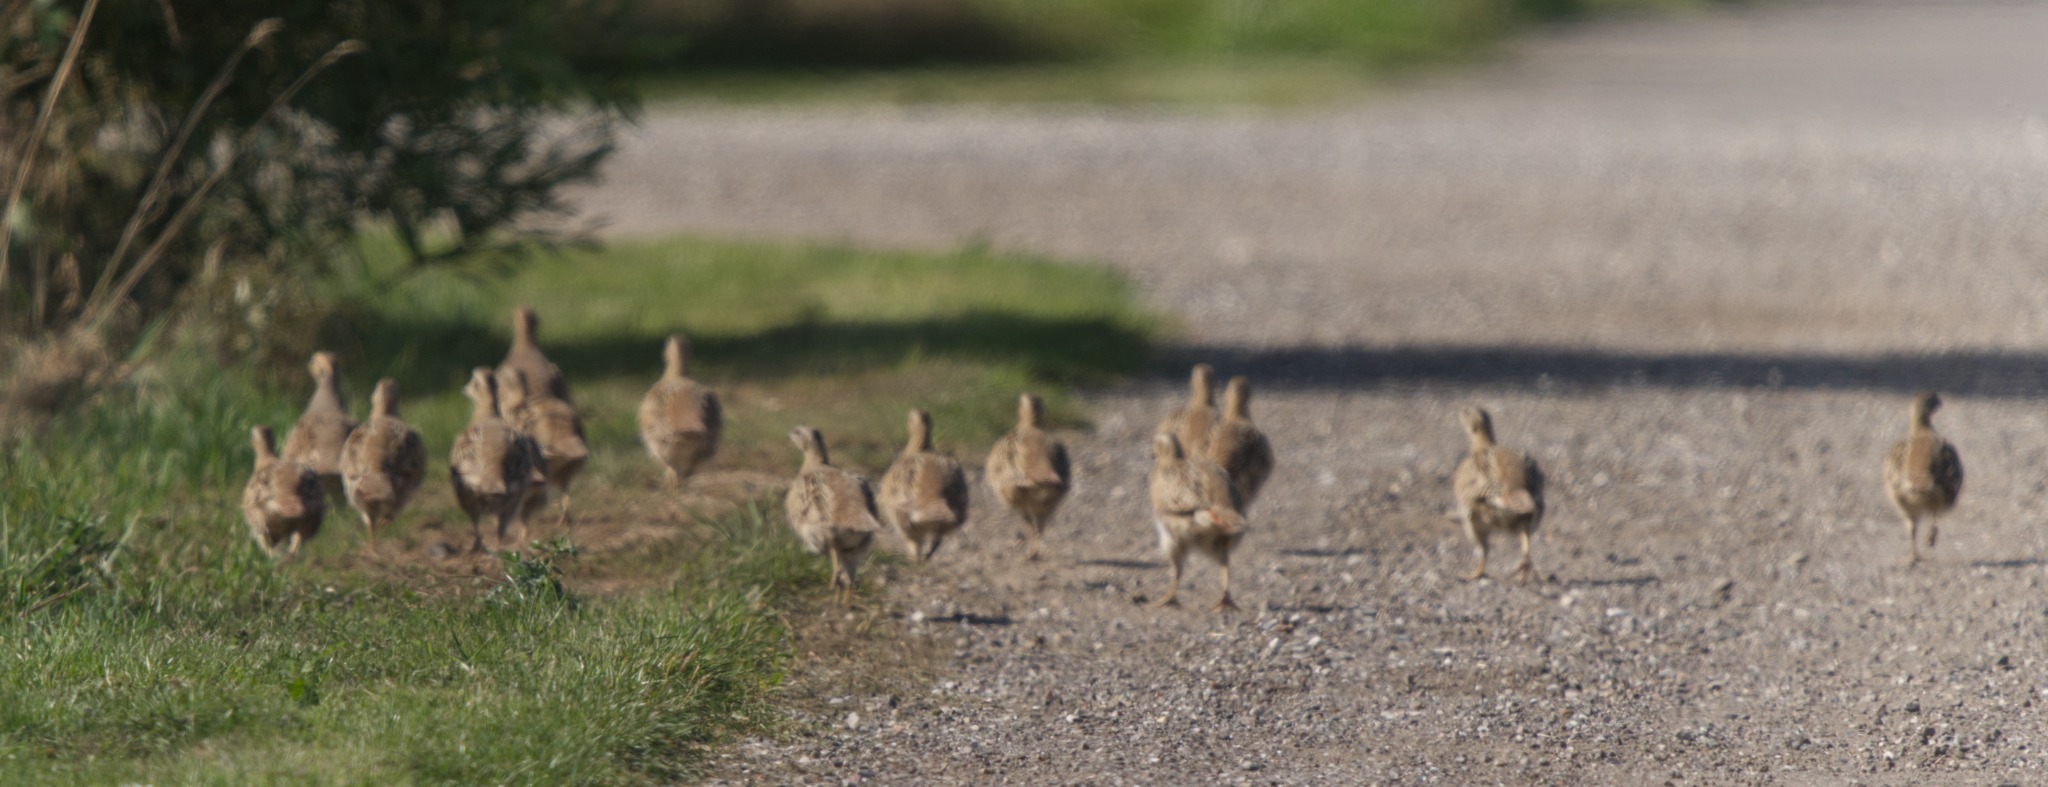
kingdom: Animalia
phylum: Chordata
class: Aves
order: Galliformes
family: Phasianidae
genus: Perdix
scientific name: Perdix perdix
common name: Agerhøne
